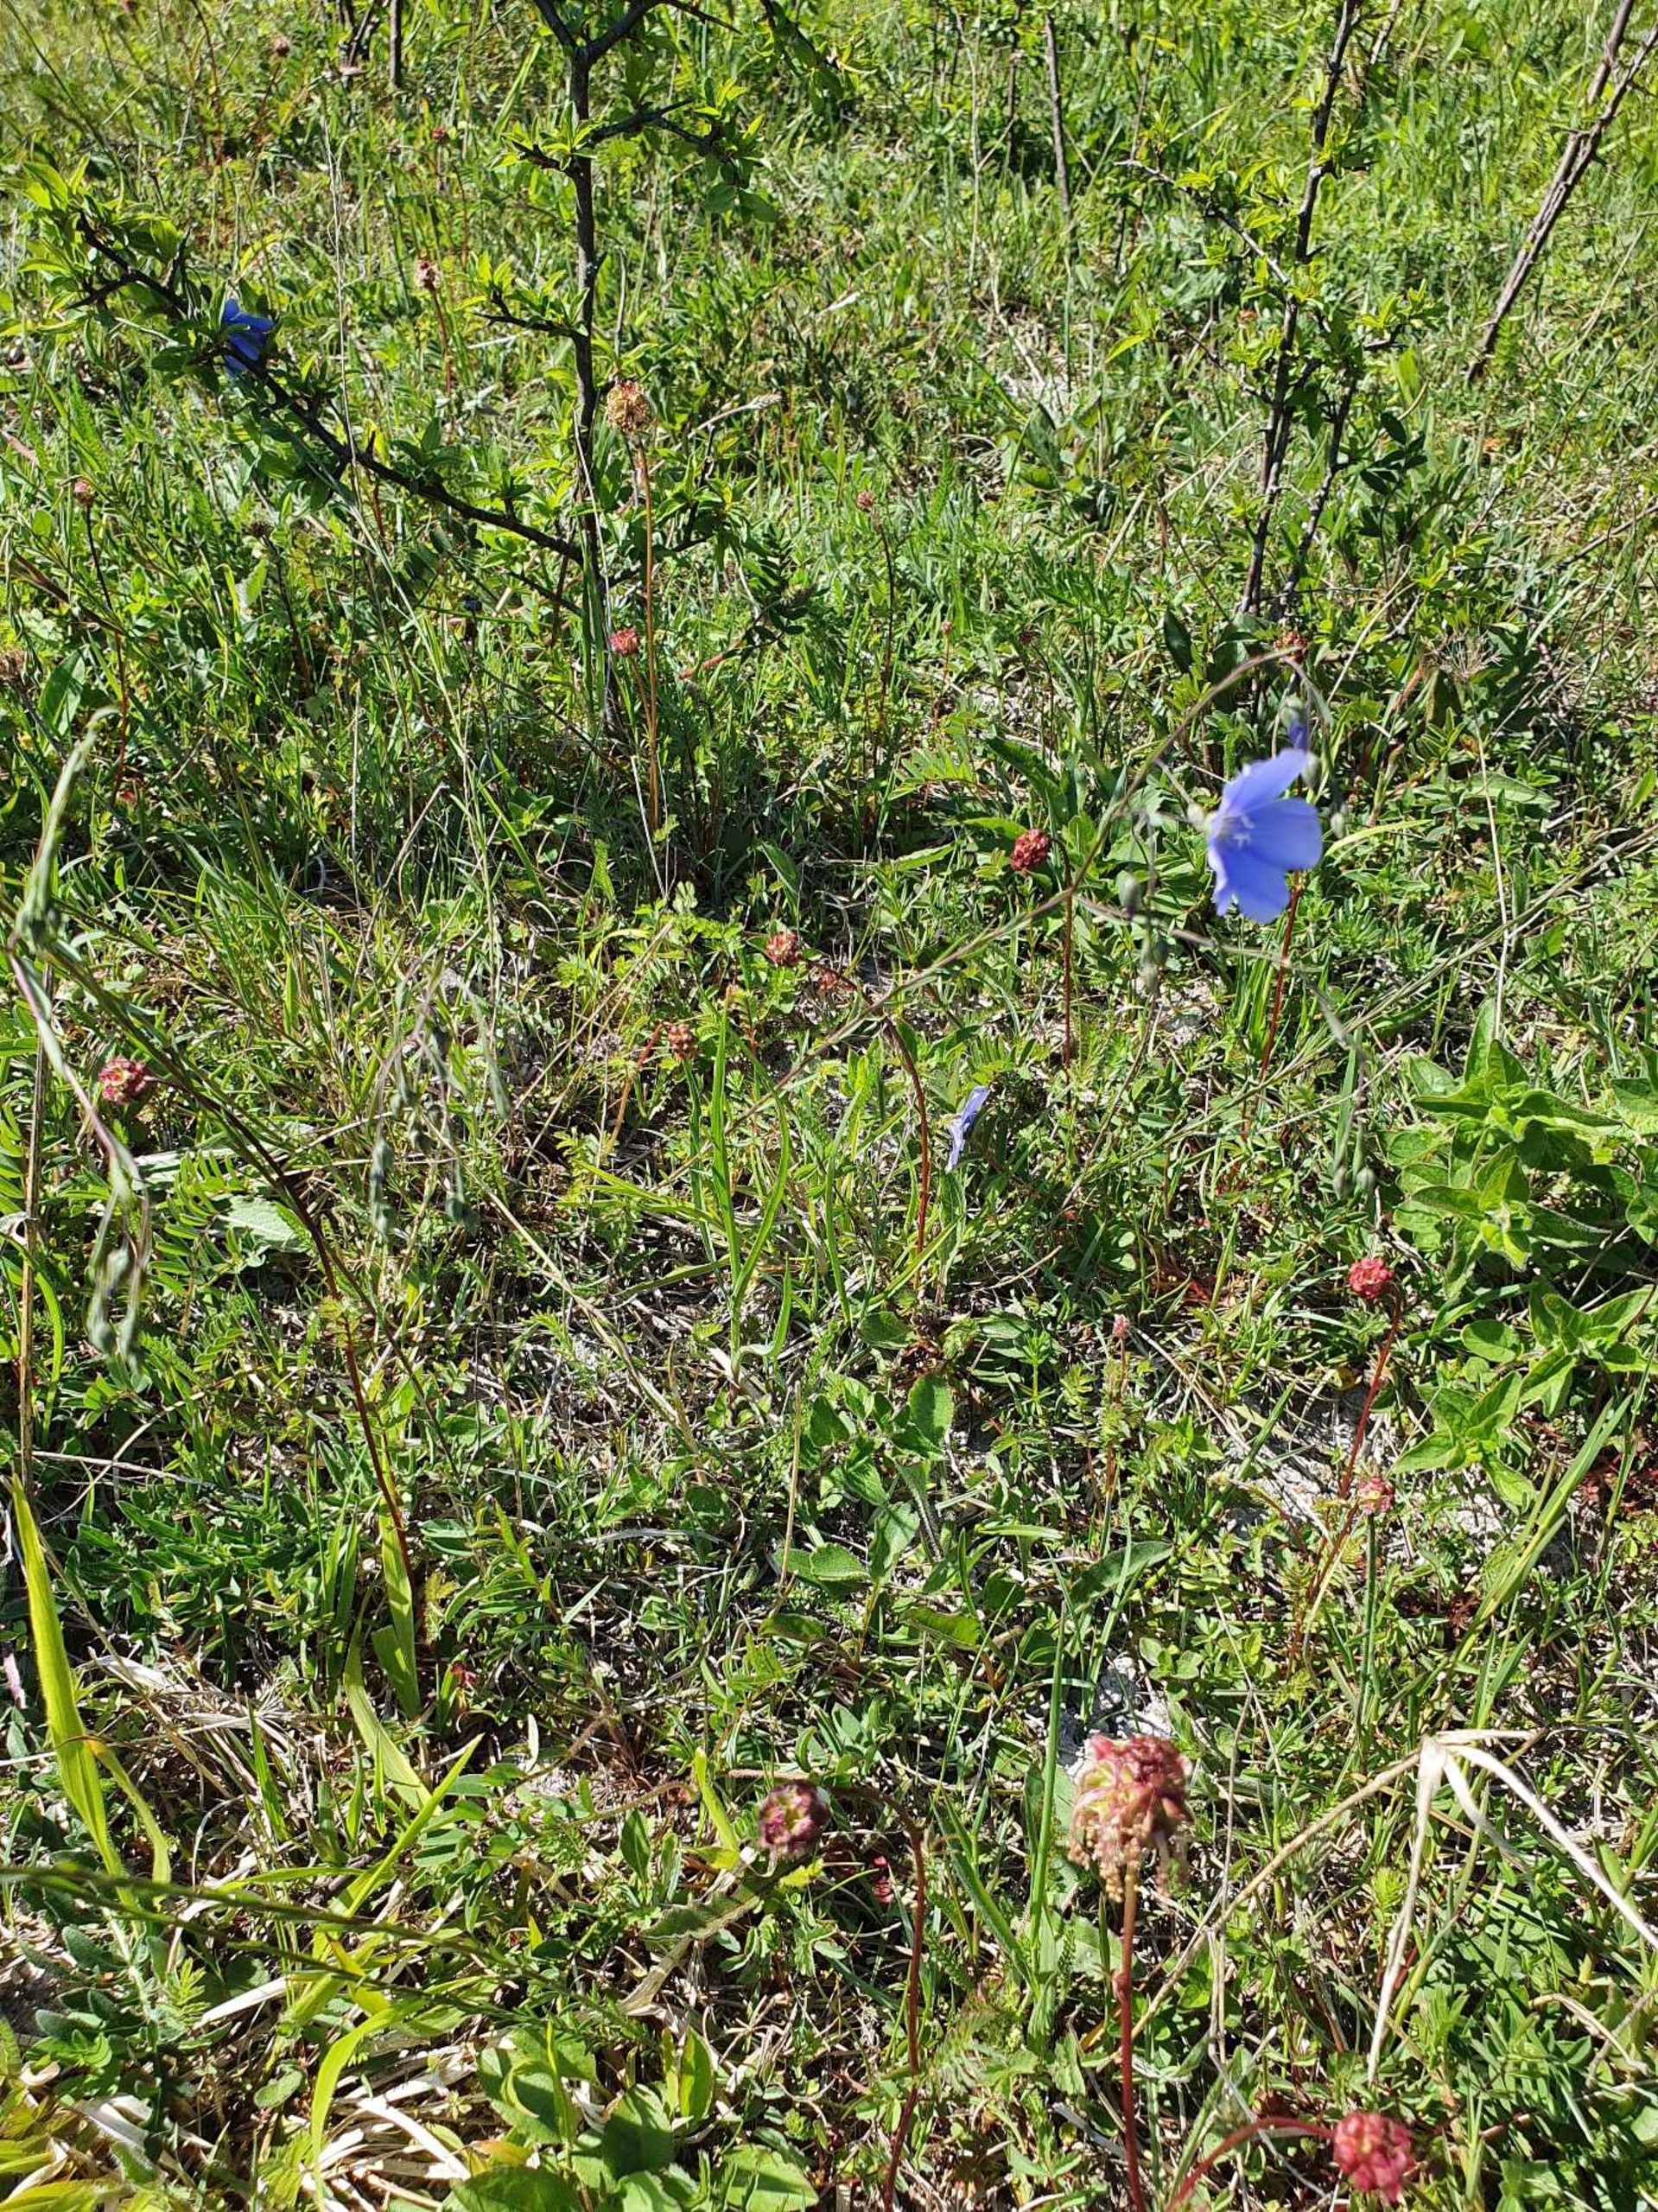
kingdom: Plantae
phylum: Tracheophyta
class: Magnoliopsida
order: Malpighiales
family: Linaceae
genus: Linum
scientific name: Linum austriacum
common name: Østrigsk hør
